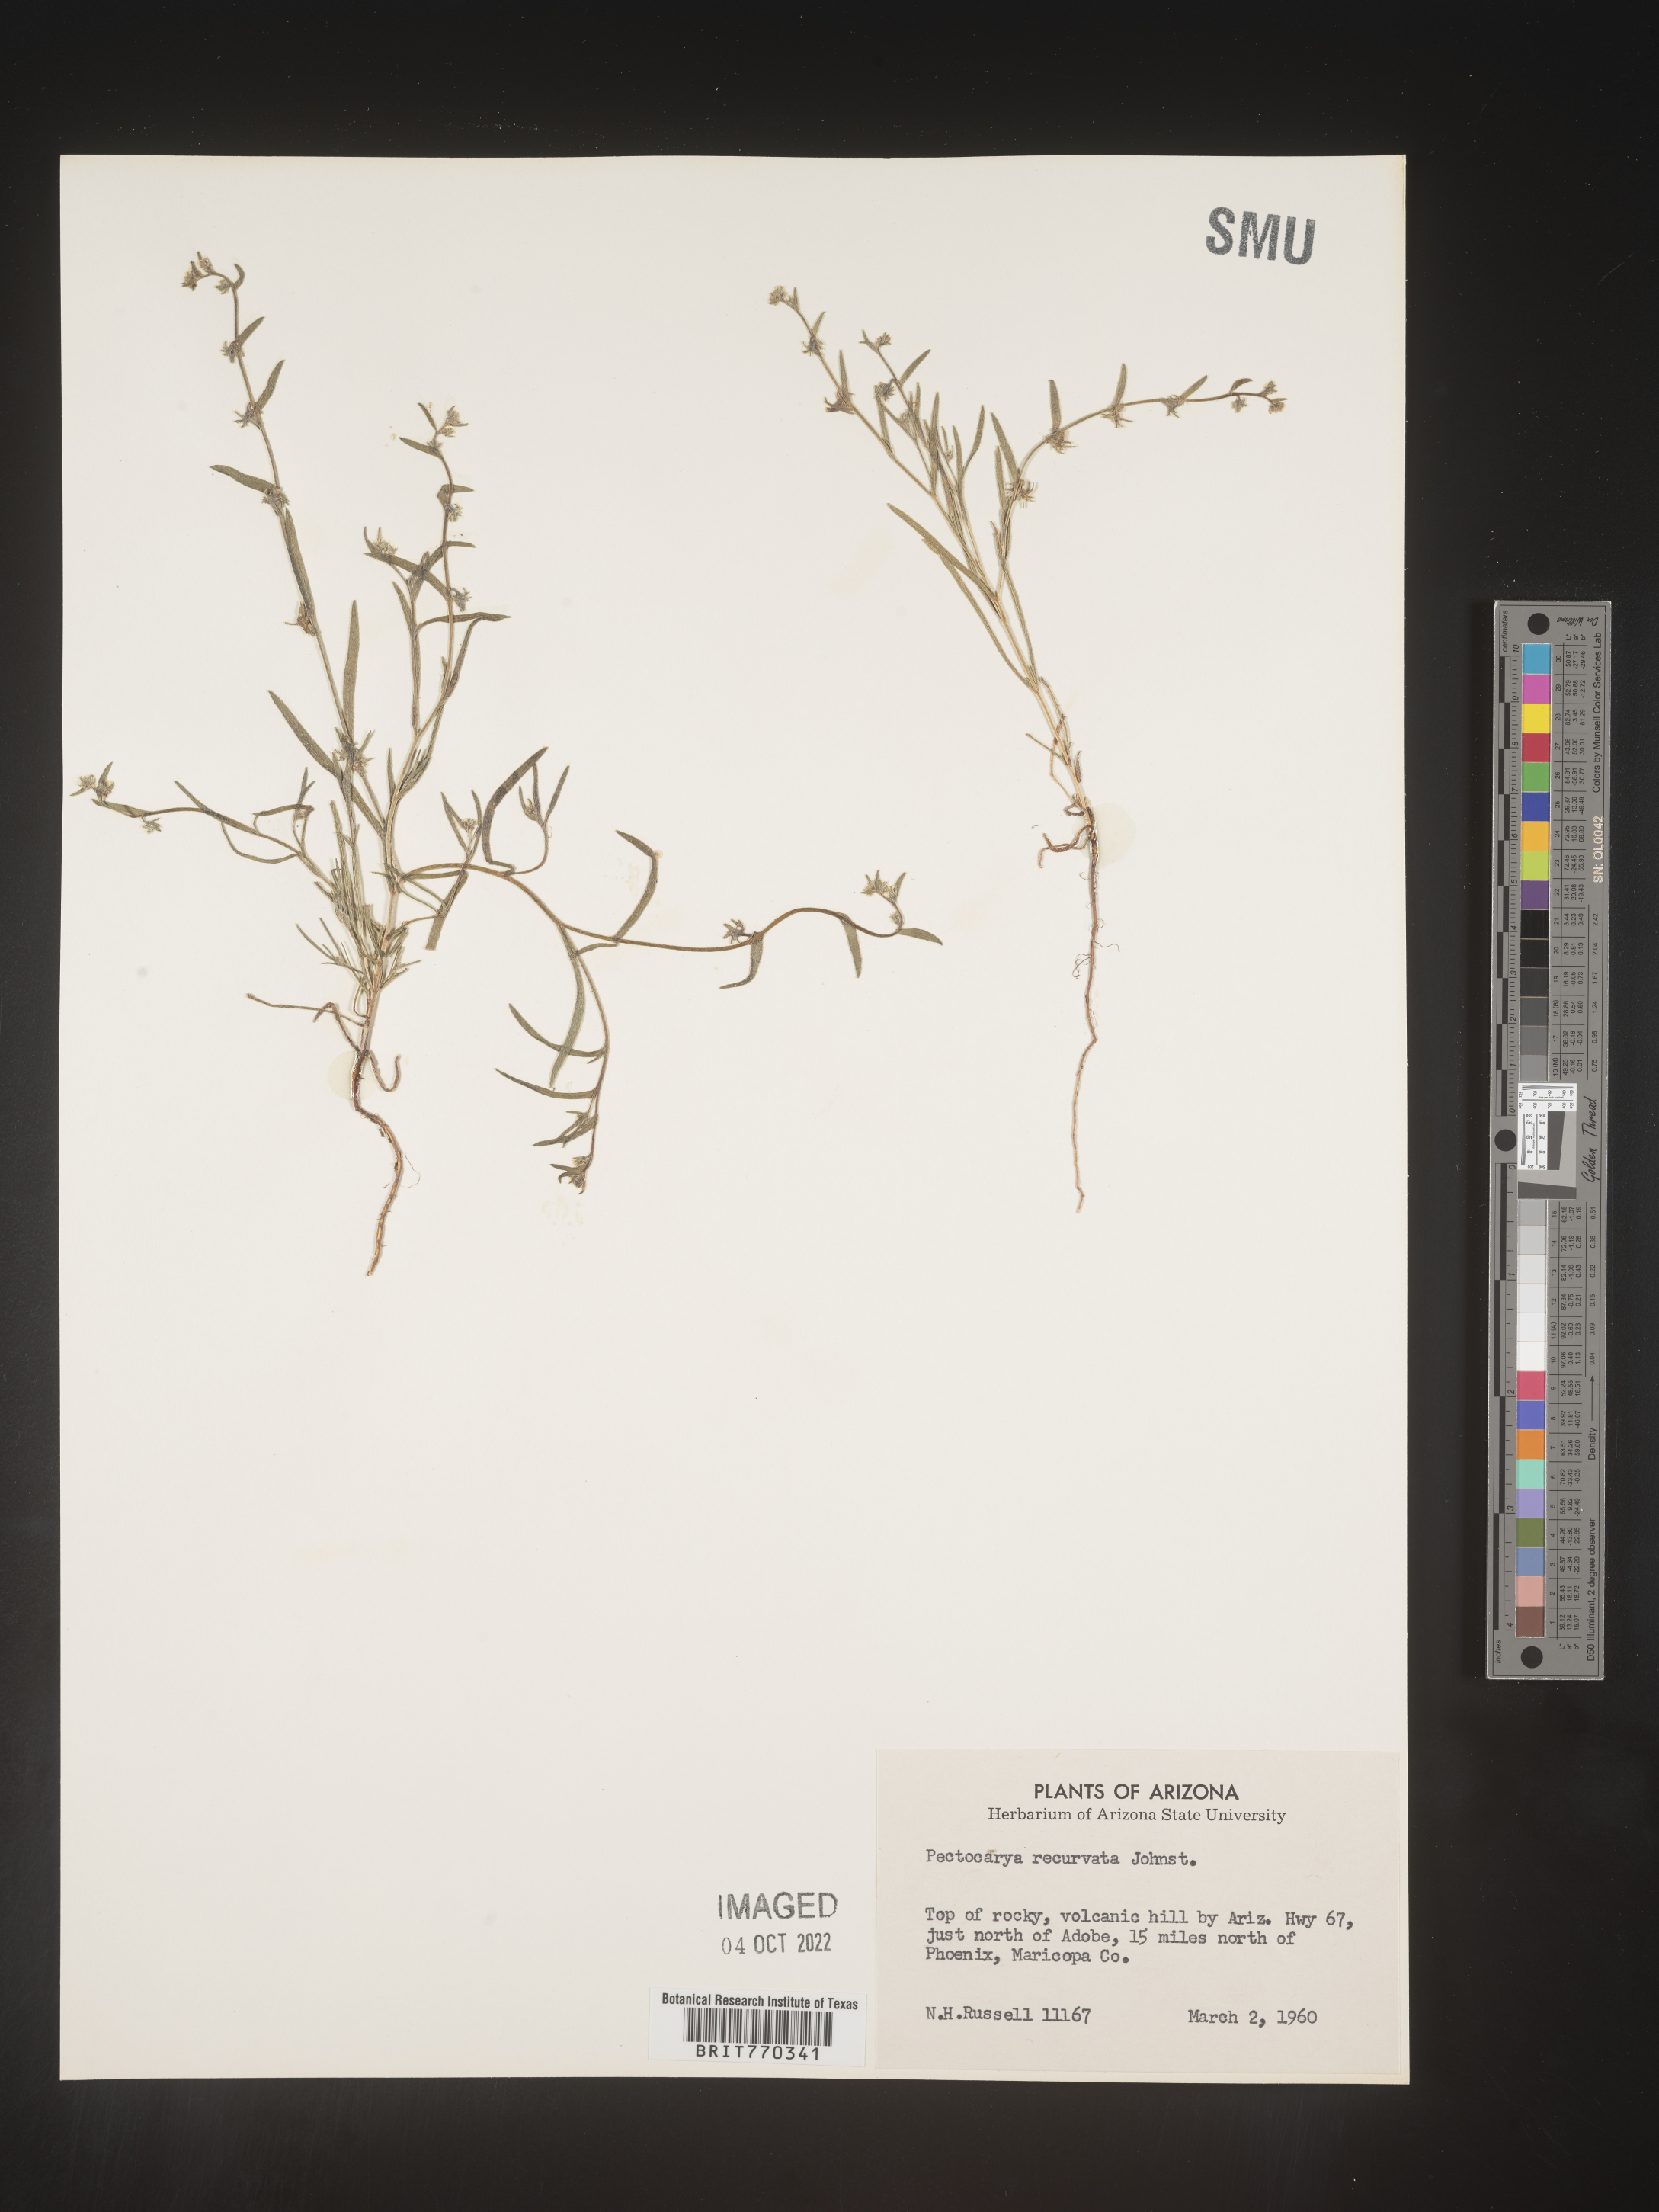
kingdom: Plantae
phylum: Tracheophyta
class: Magnoliopsida
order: Boraginales
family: Boraginaceae
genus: Pectocarya
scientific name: Pectocarya
